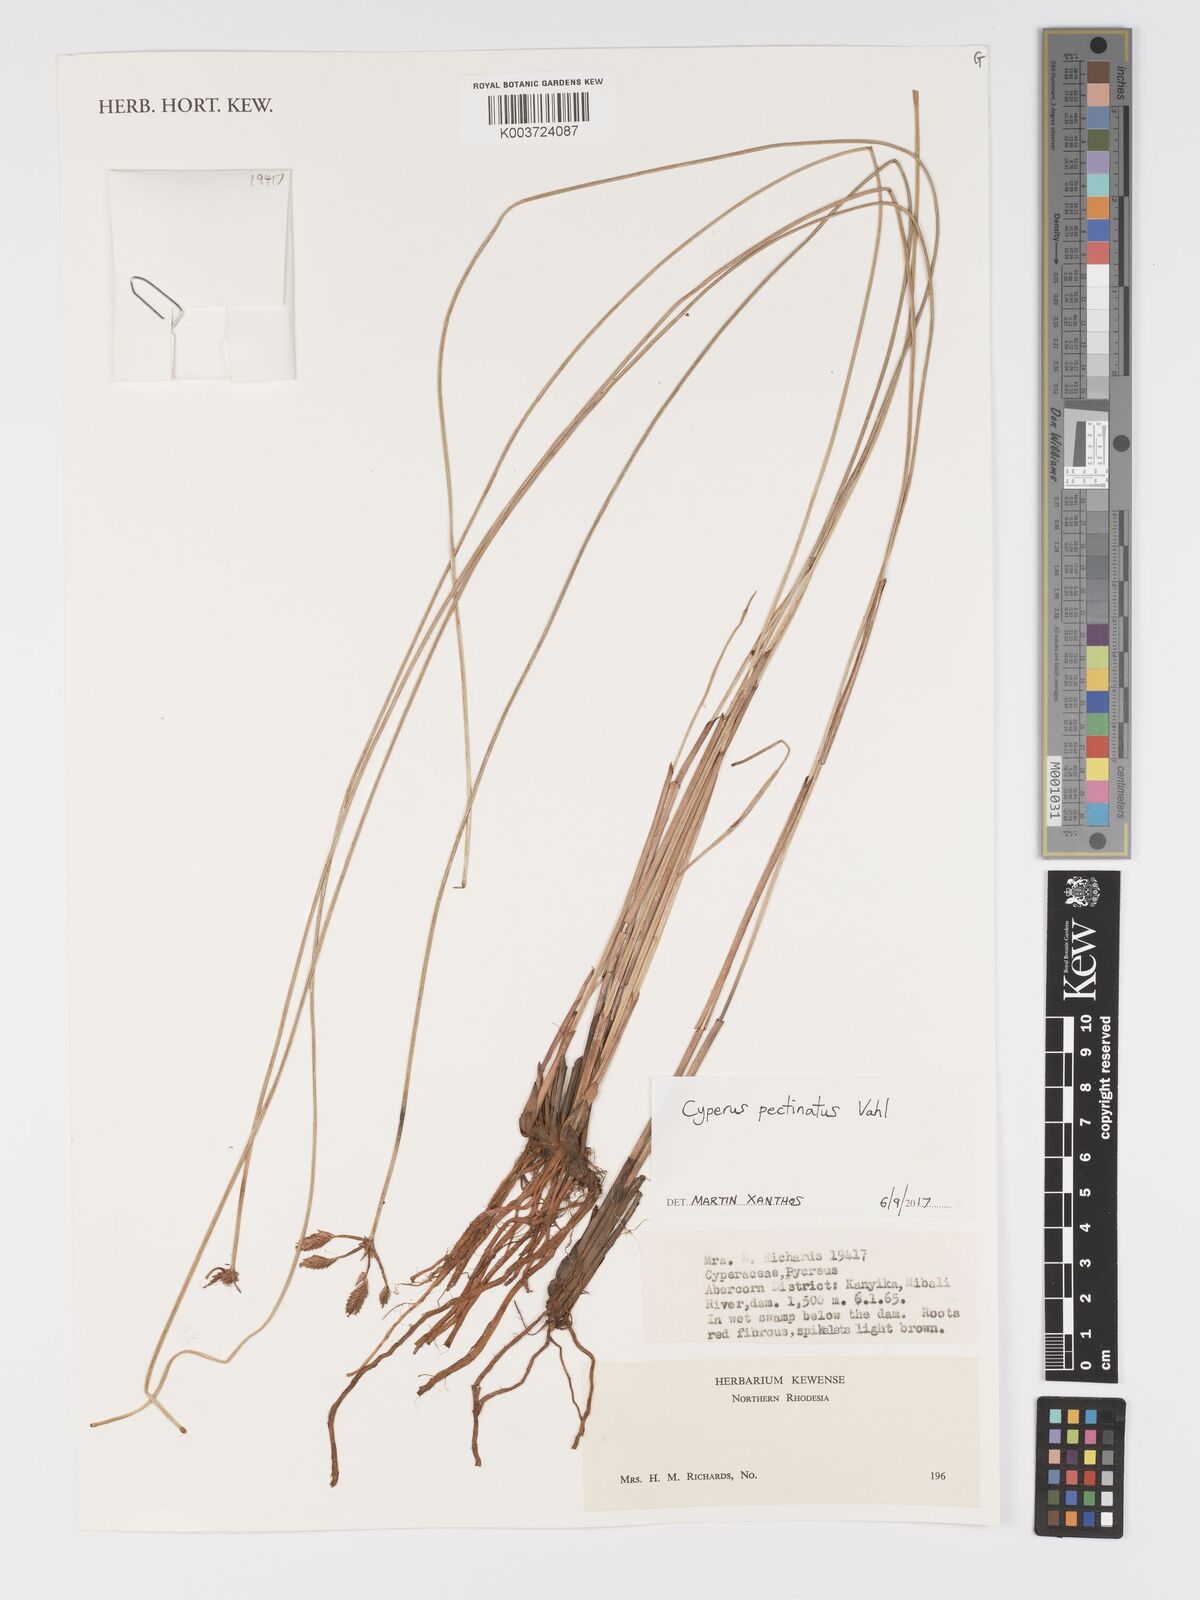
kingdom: Plantae
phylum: Tracheophyta
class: Liliopsida
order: Poales
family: Cyperaceae
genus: Cyperus
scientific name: Cyperus compressus
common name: Poorland flatsedge
